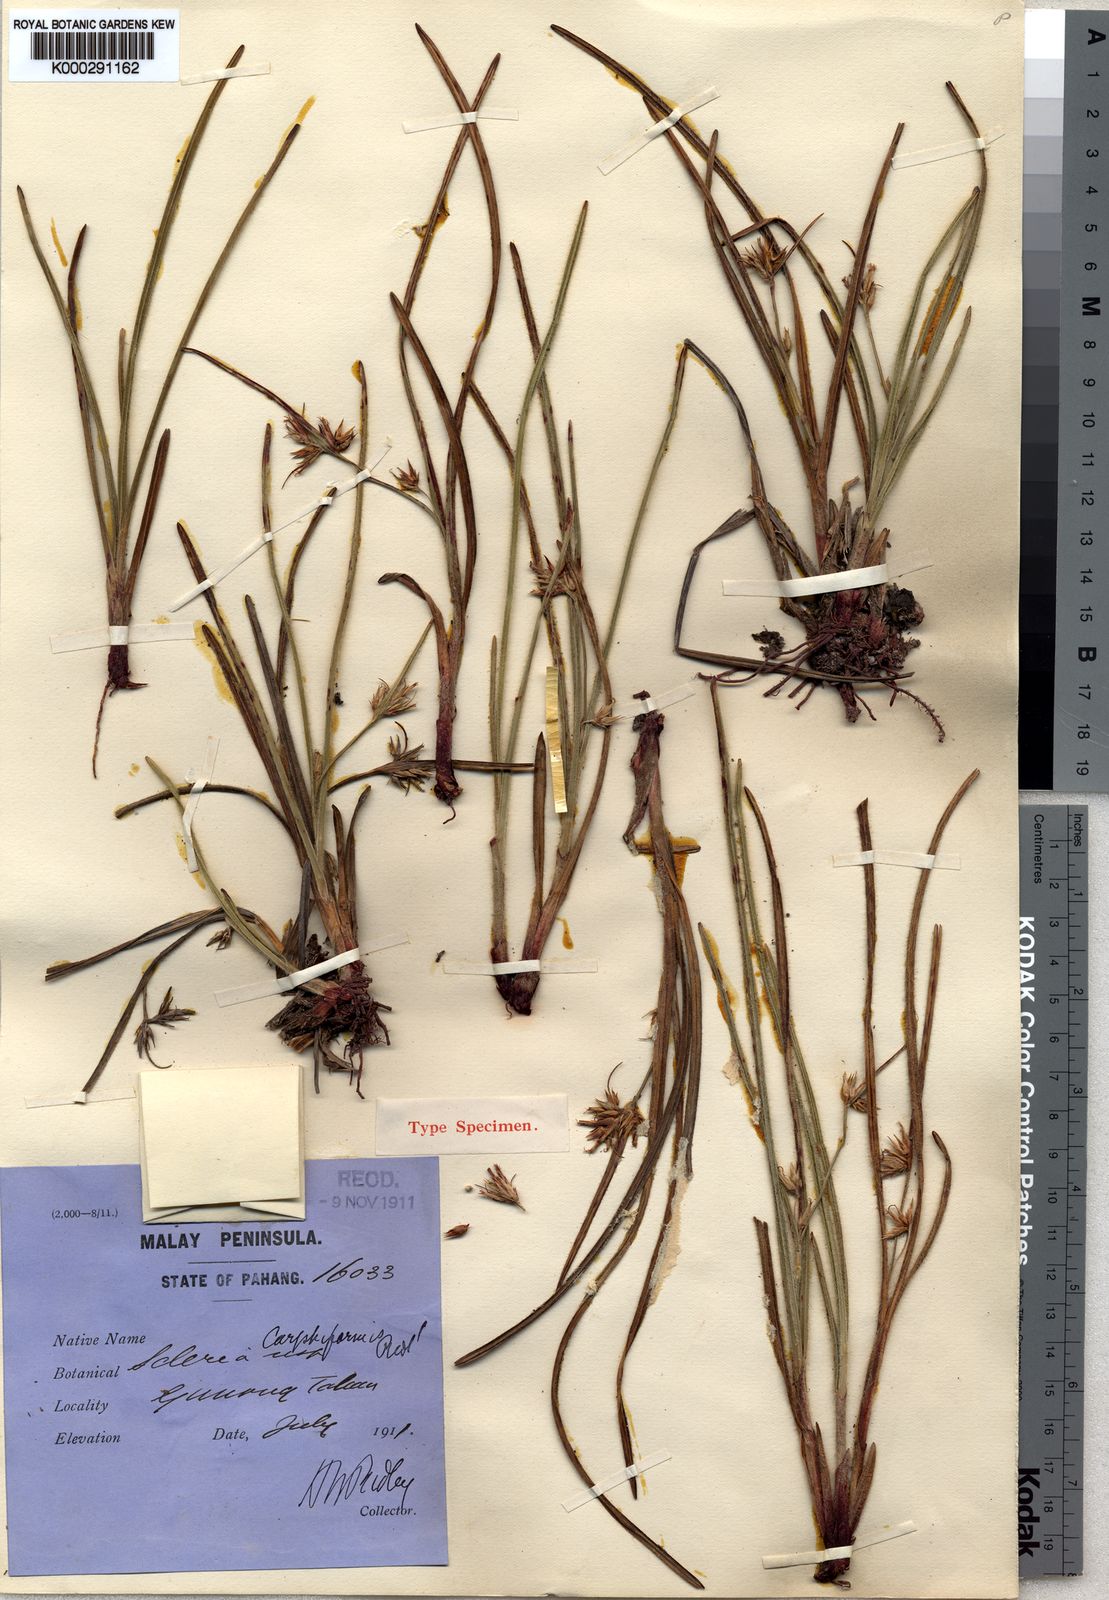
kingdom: Plantae
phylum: Tracheophyta
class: Liliopsida
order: Poales
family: Cyperaceae
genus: Scleria
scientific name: Scleria carphiformis
